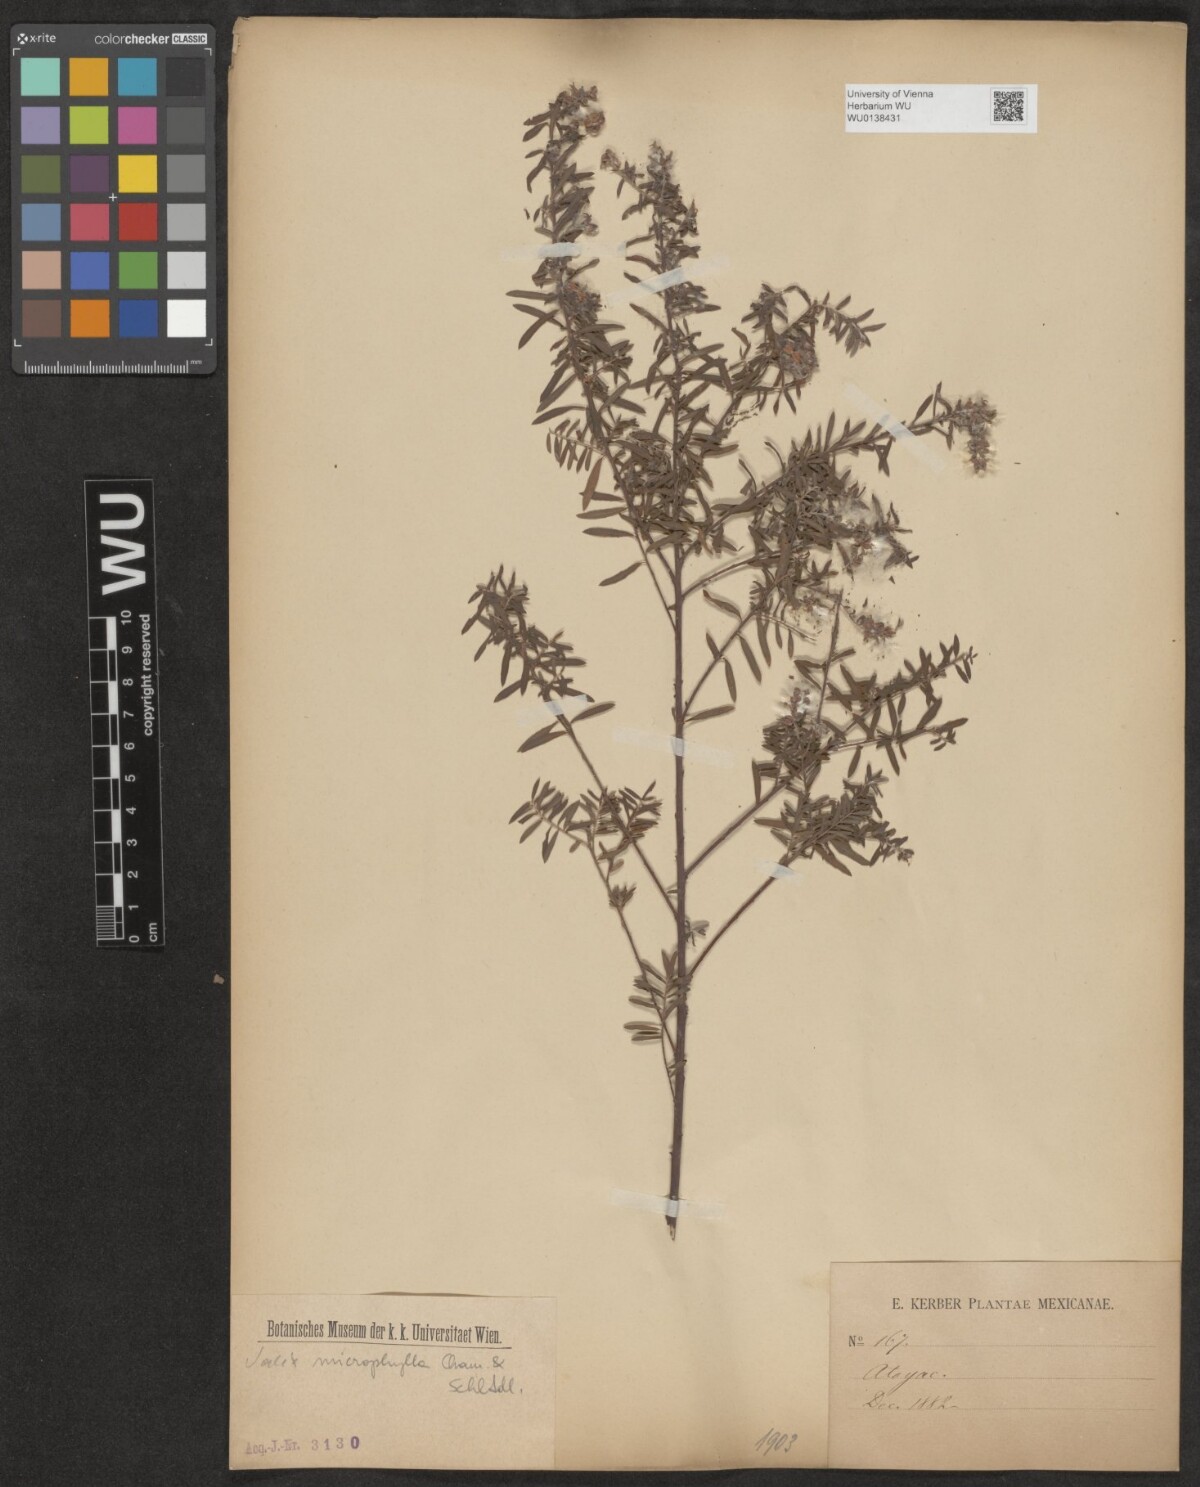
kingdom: Plantae
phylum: Tracheophyta
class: Magnoliopsida
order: Malpighiales
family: Salicaceae
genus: Salix
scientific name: Salix taxifolia
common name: Yew-leaf willow
